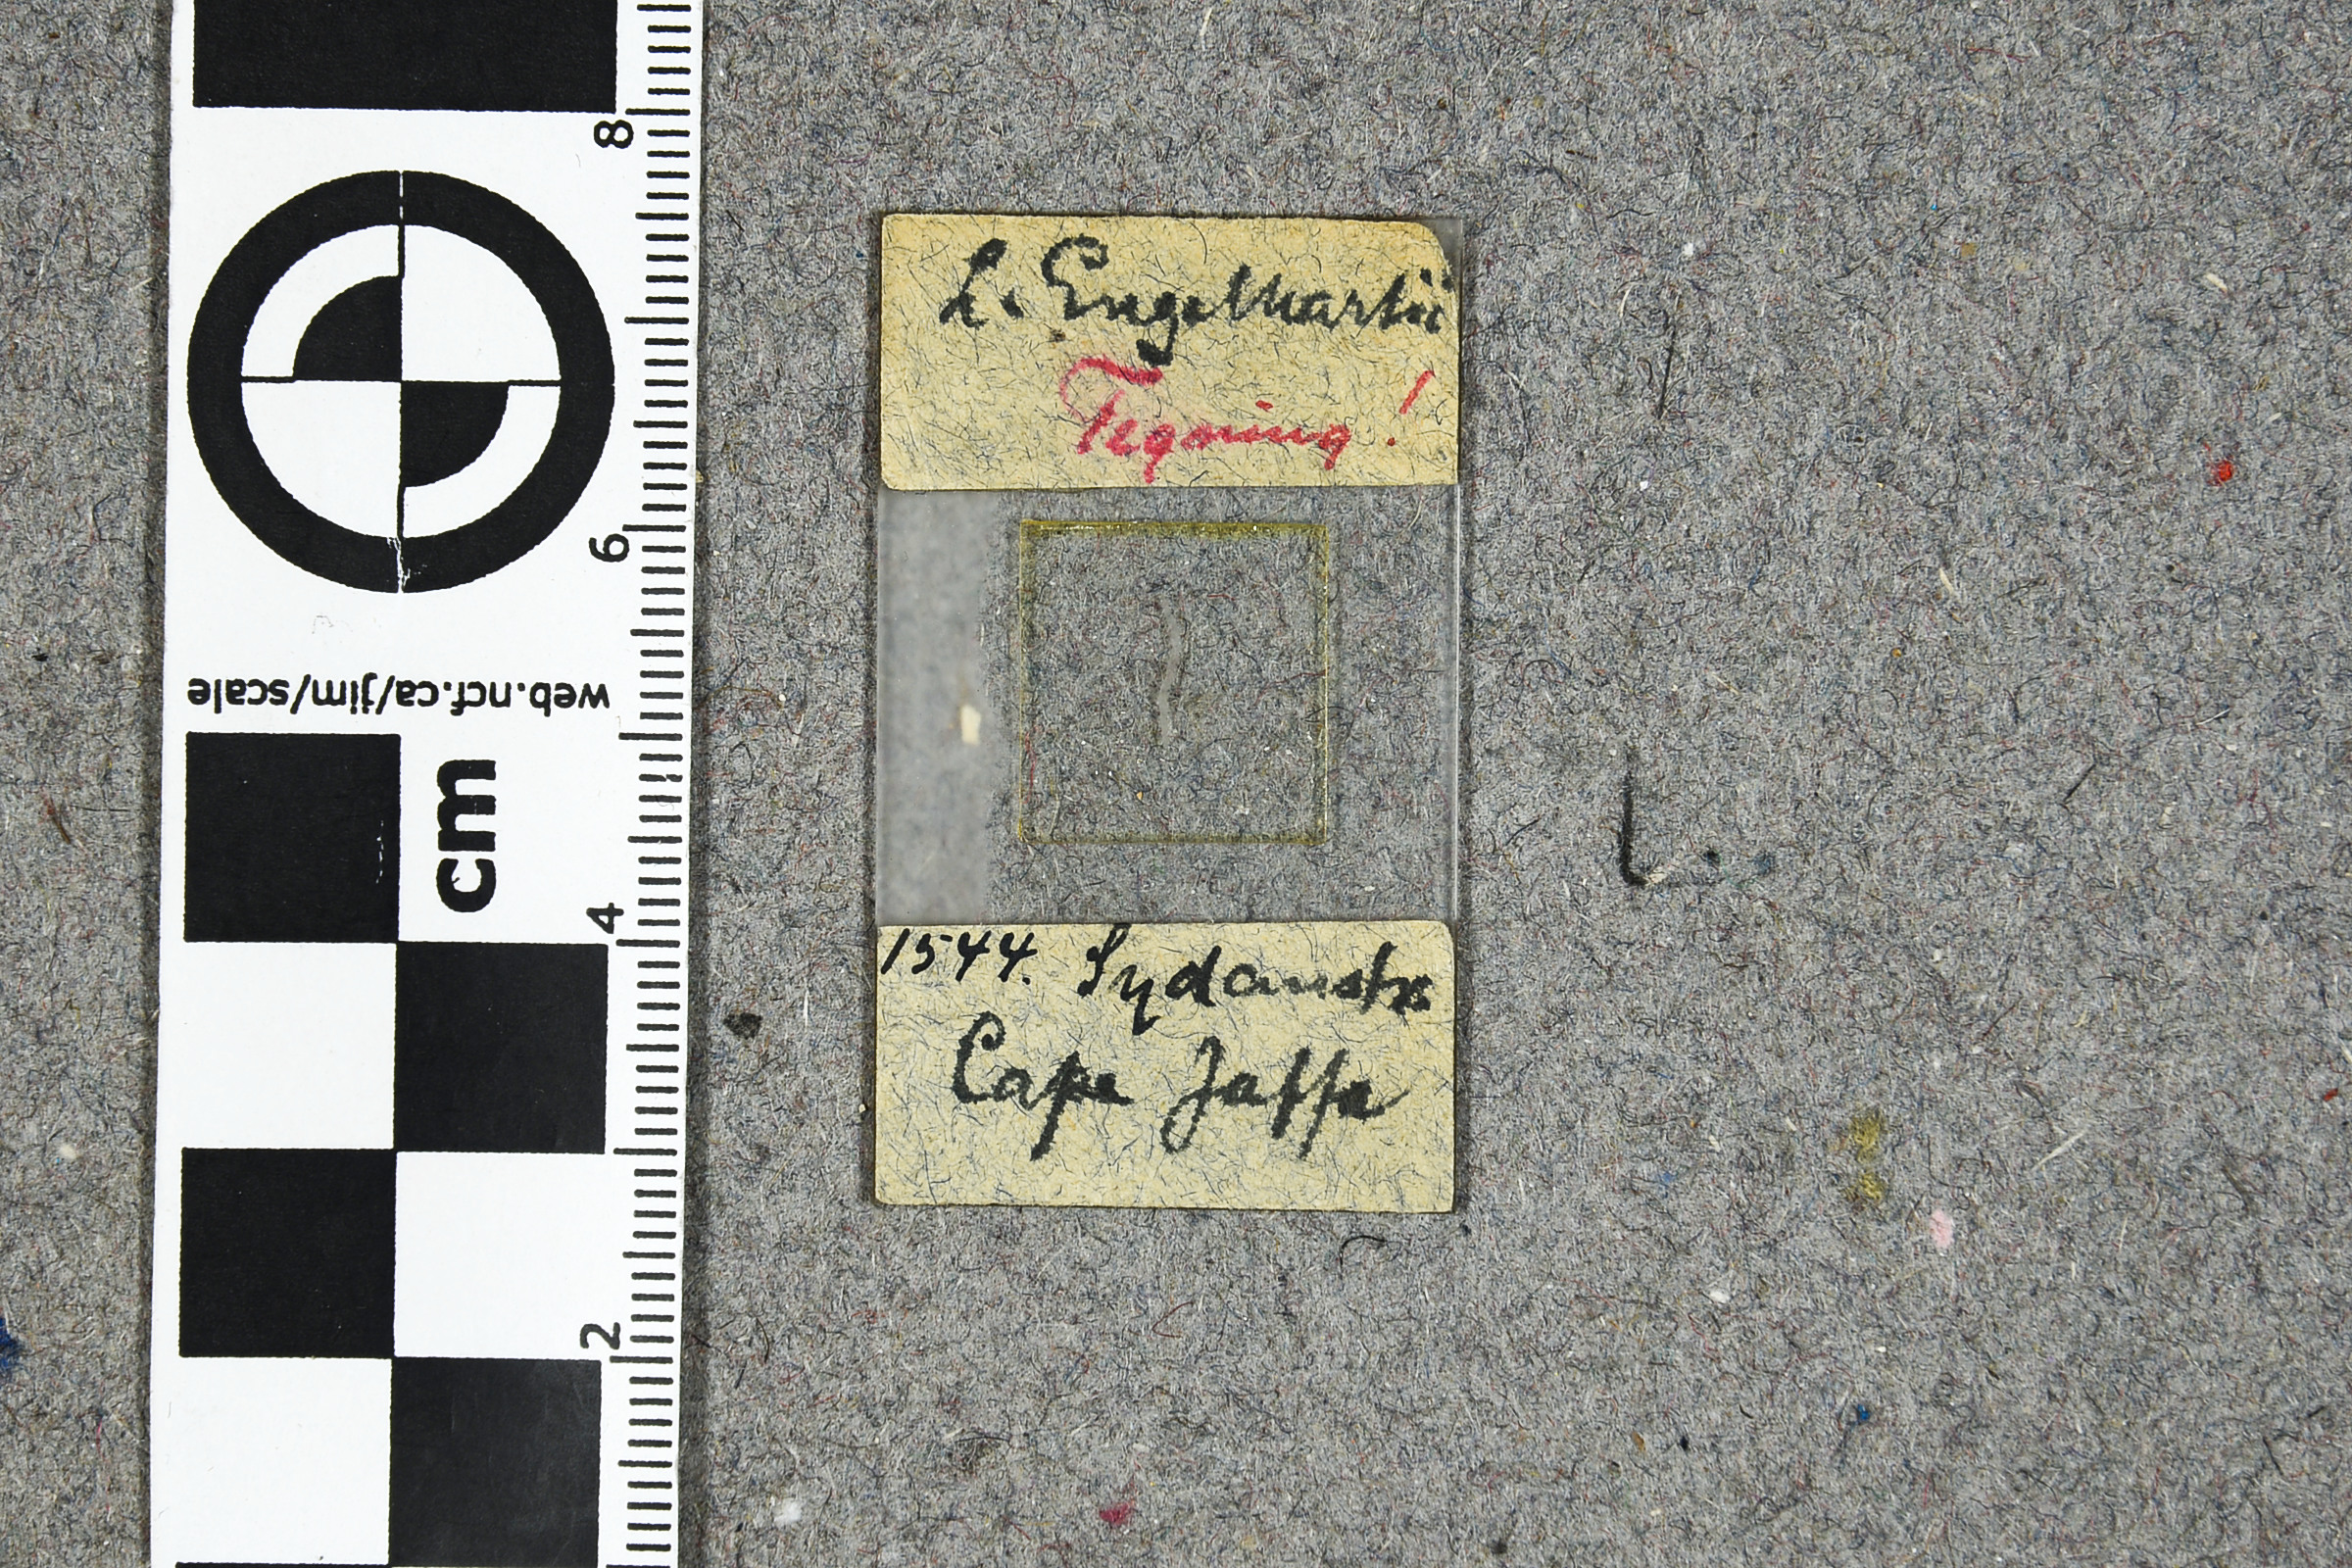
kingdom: Plantae
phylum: Rhodophyta
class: Florideophyceae
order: Corallinales
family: Mesophyllumaceae
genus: Mesophyllum
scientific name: Mesophyllum engelhartii
